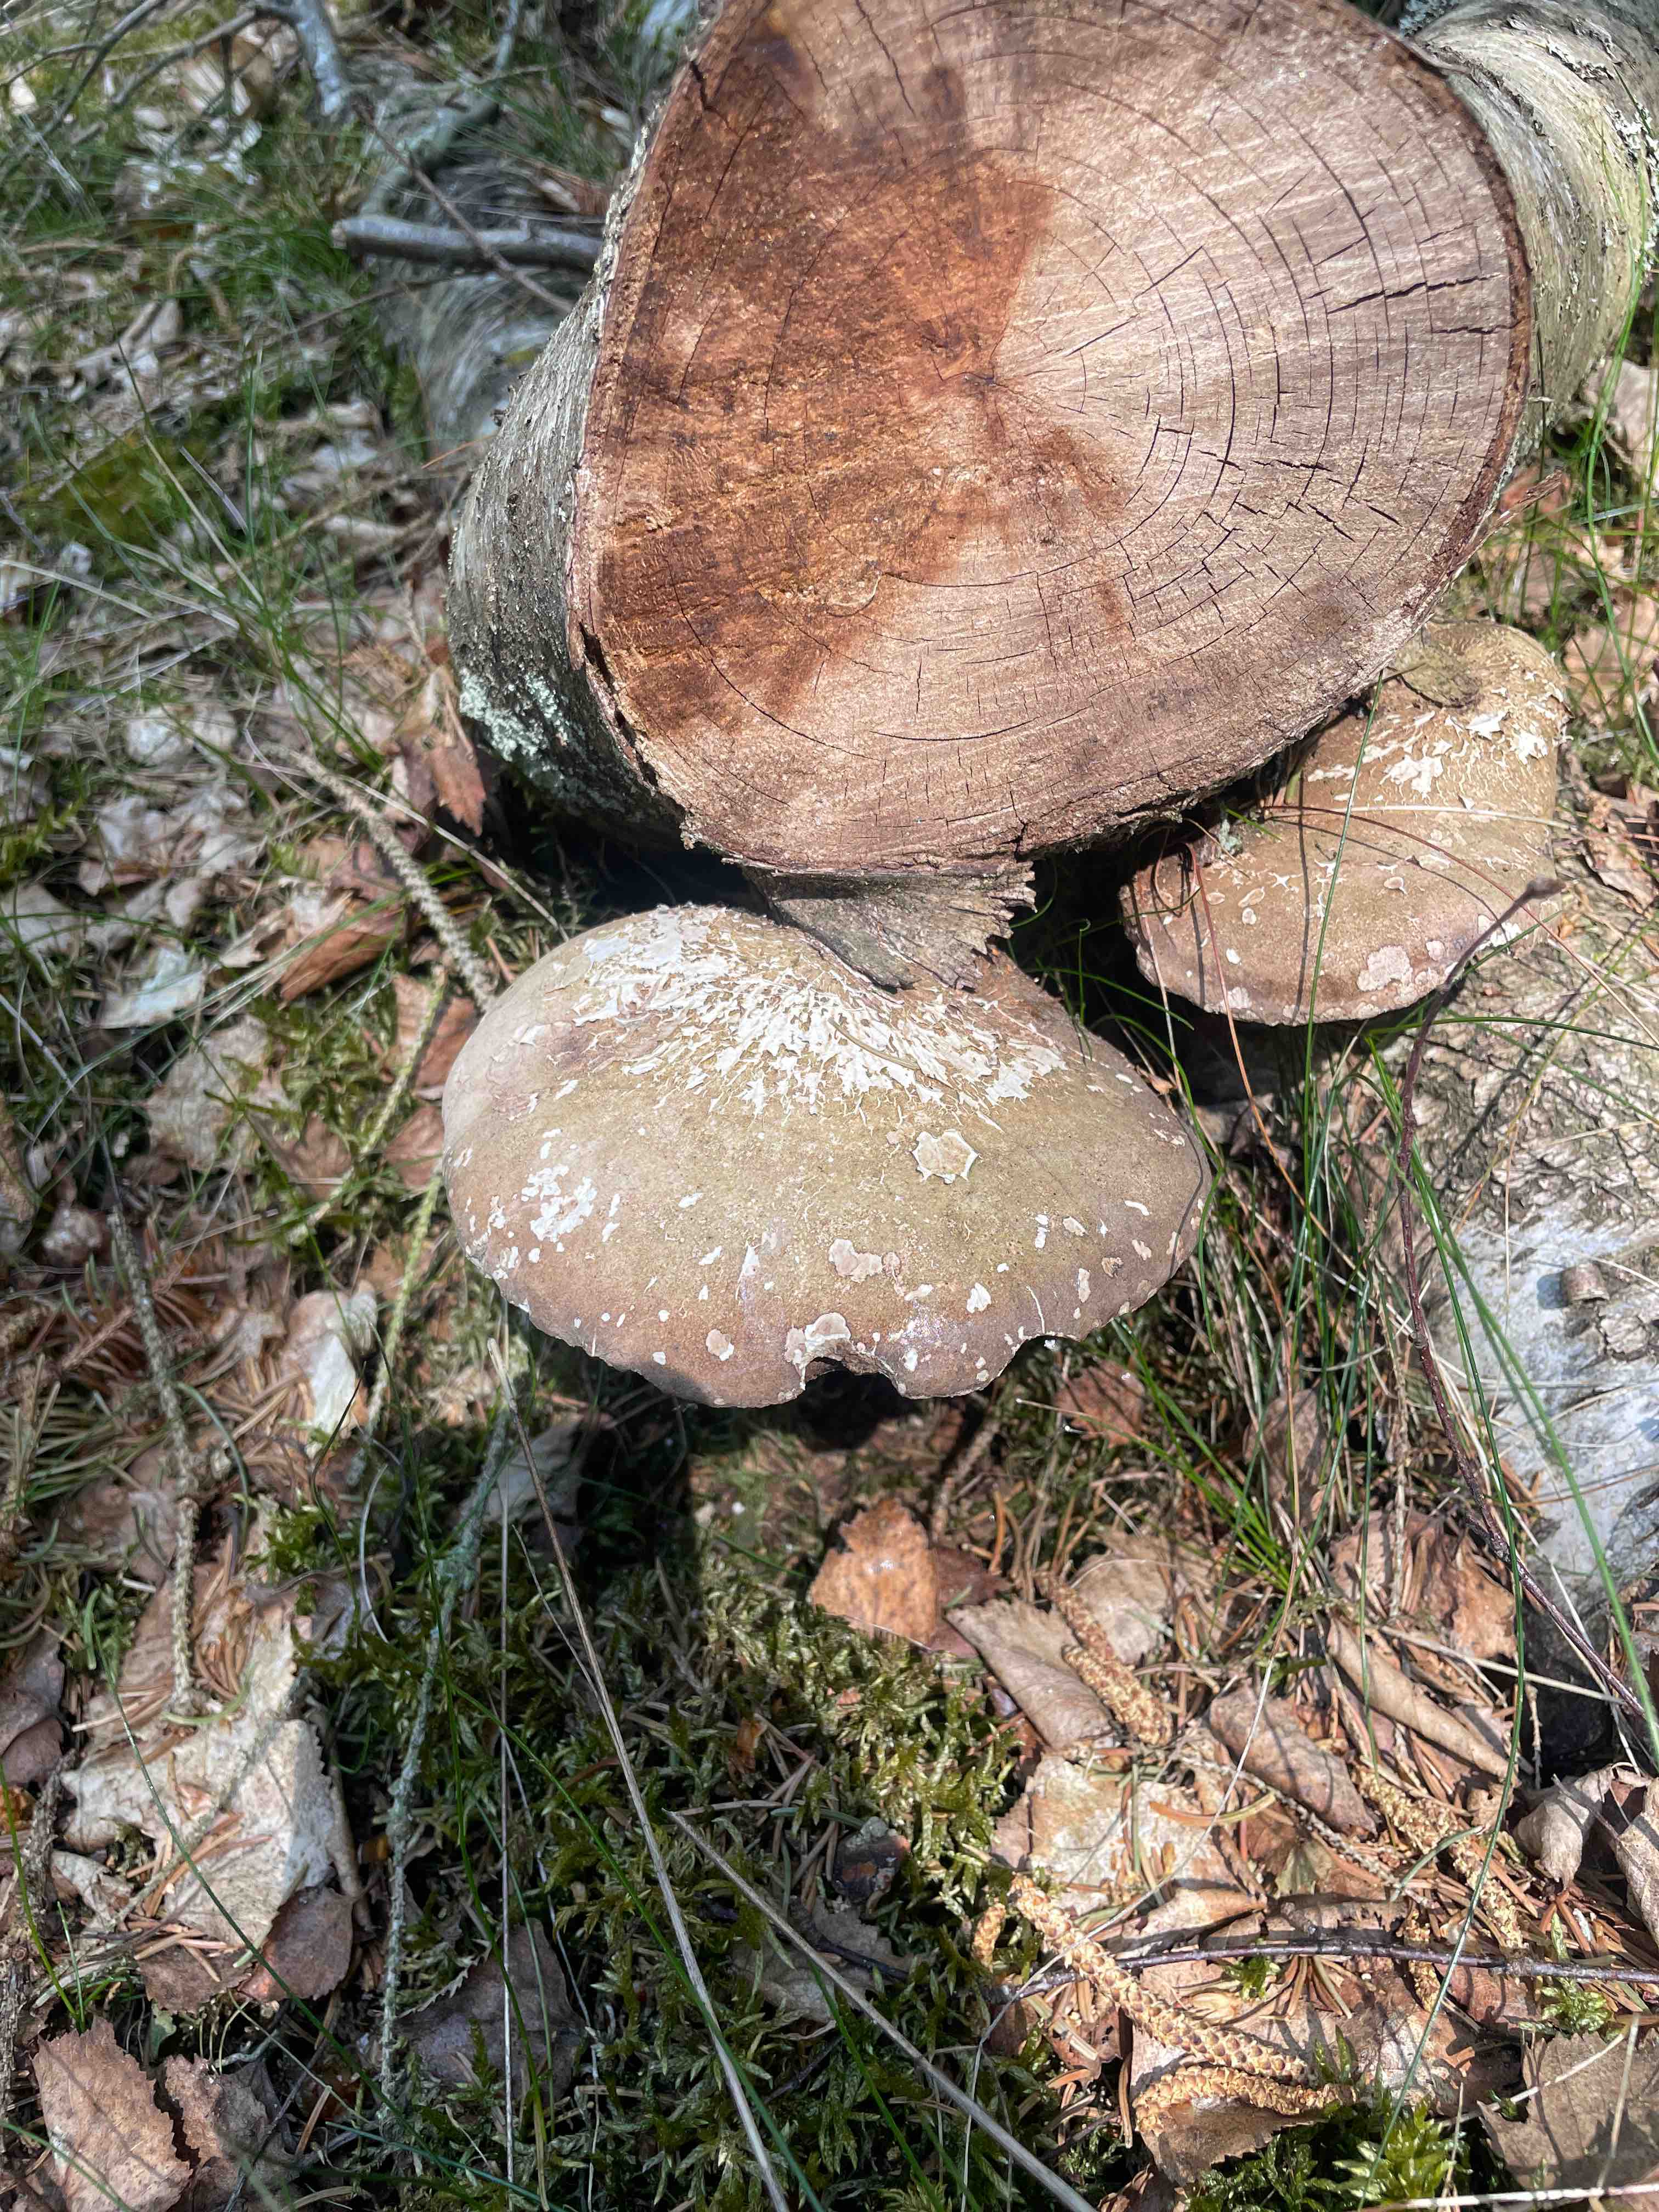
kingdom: Fungi
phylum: Basidiomycota
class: Agaricomycetes
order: Polyporales
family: Fomitopsidaceae
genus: Fomitopsis
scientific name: Fomitopsis betulina
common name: birkeporesvamp
